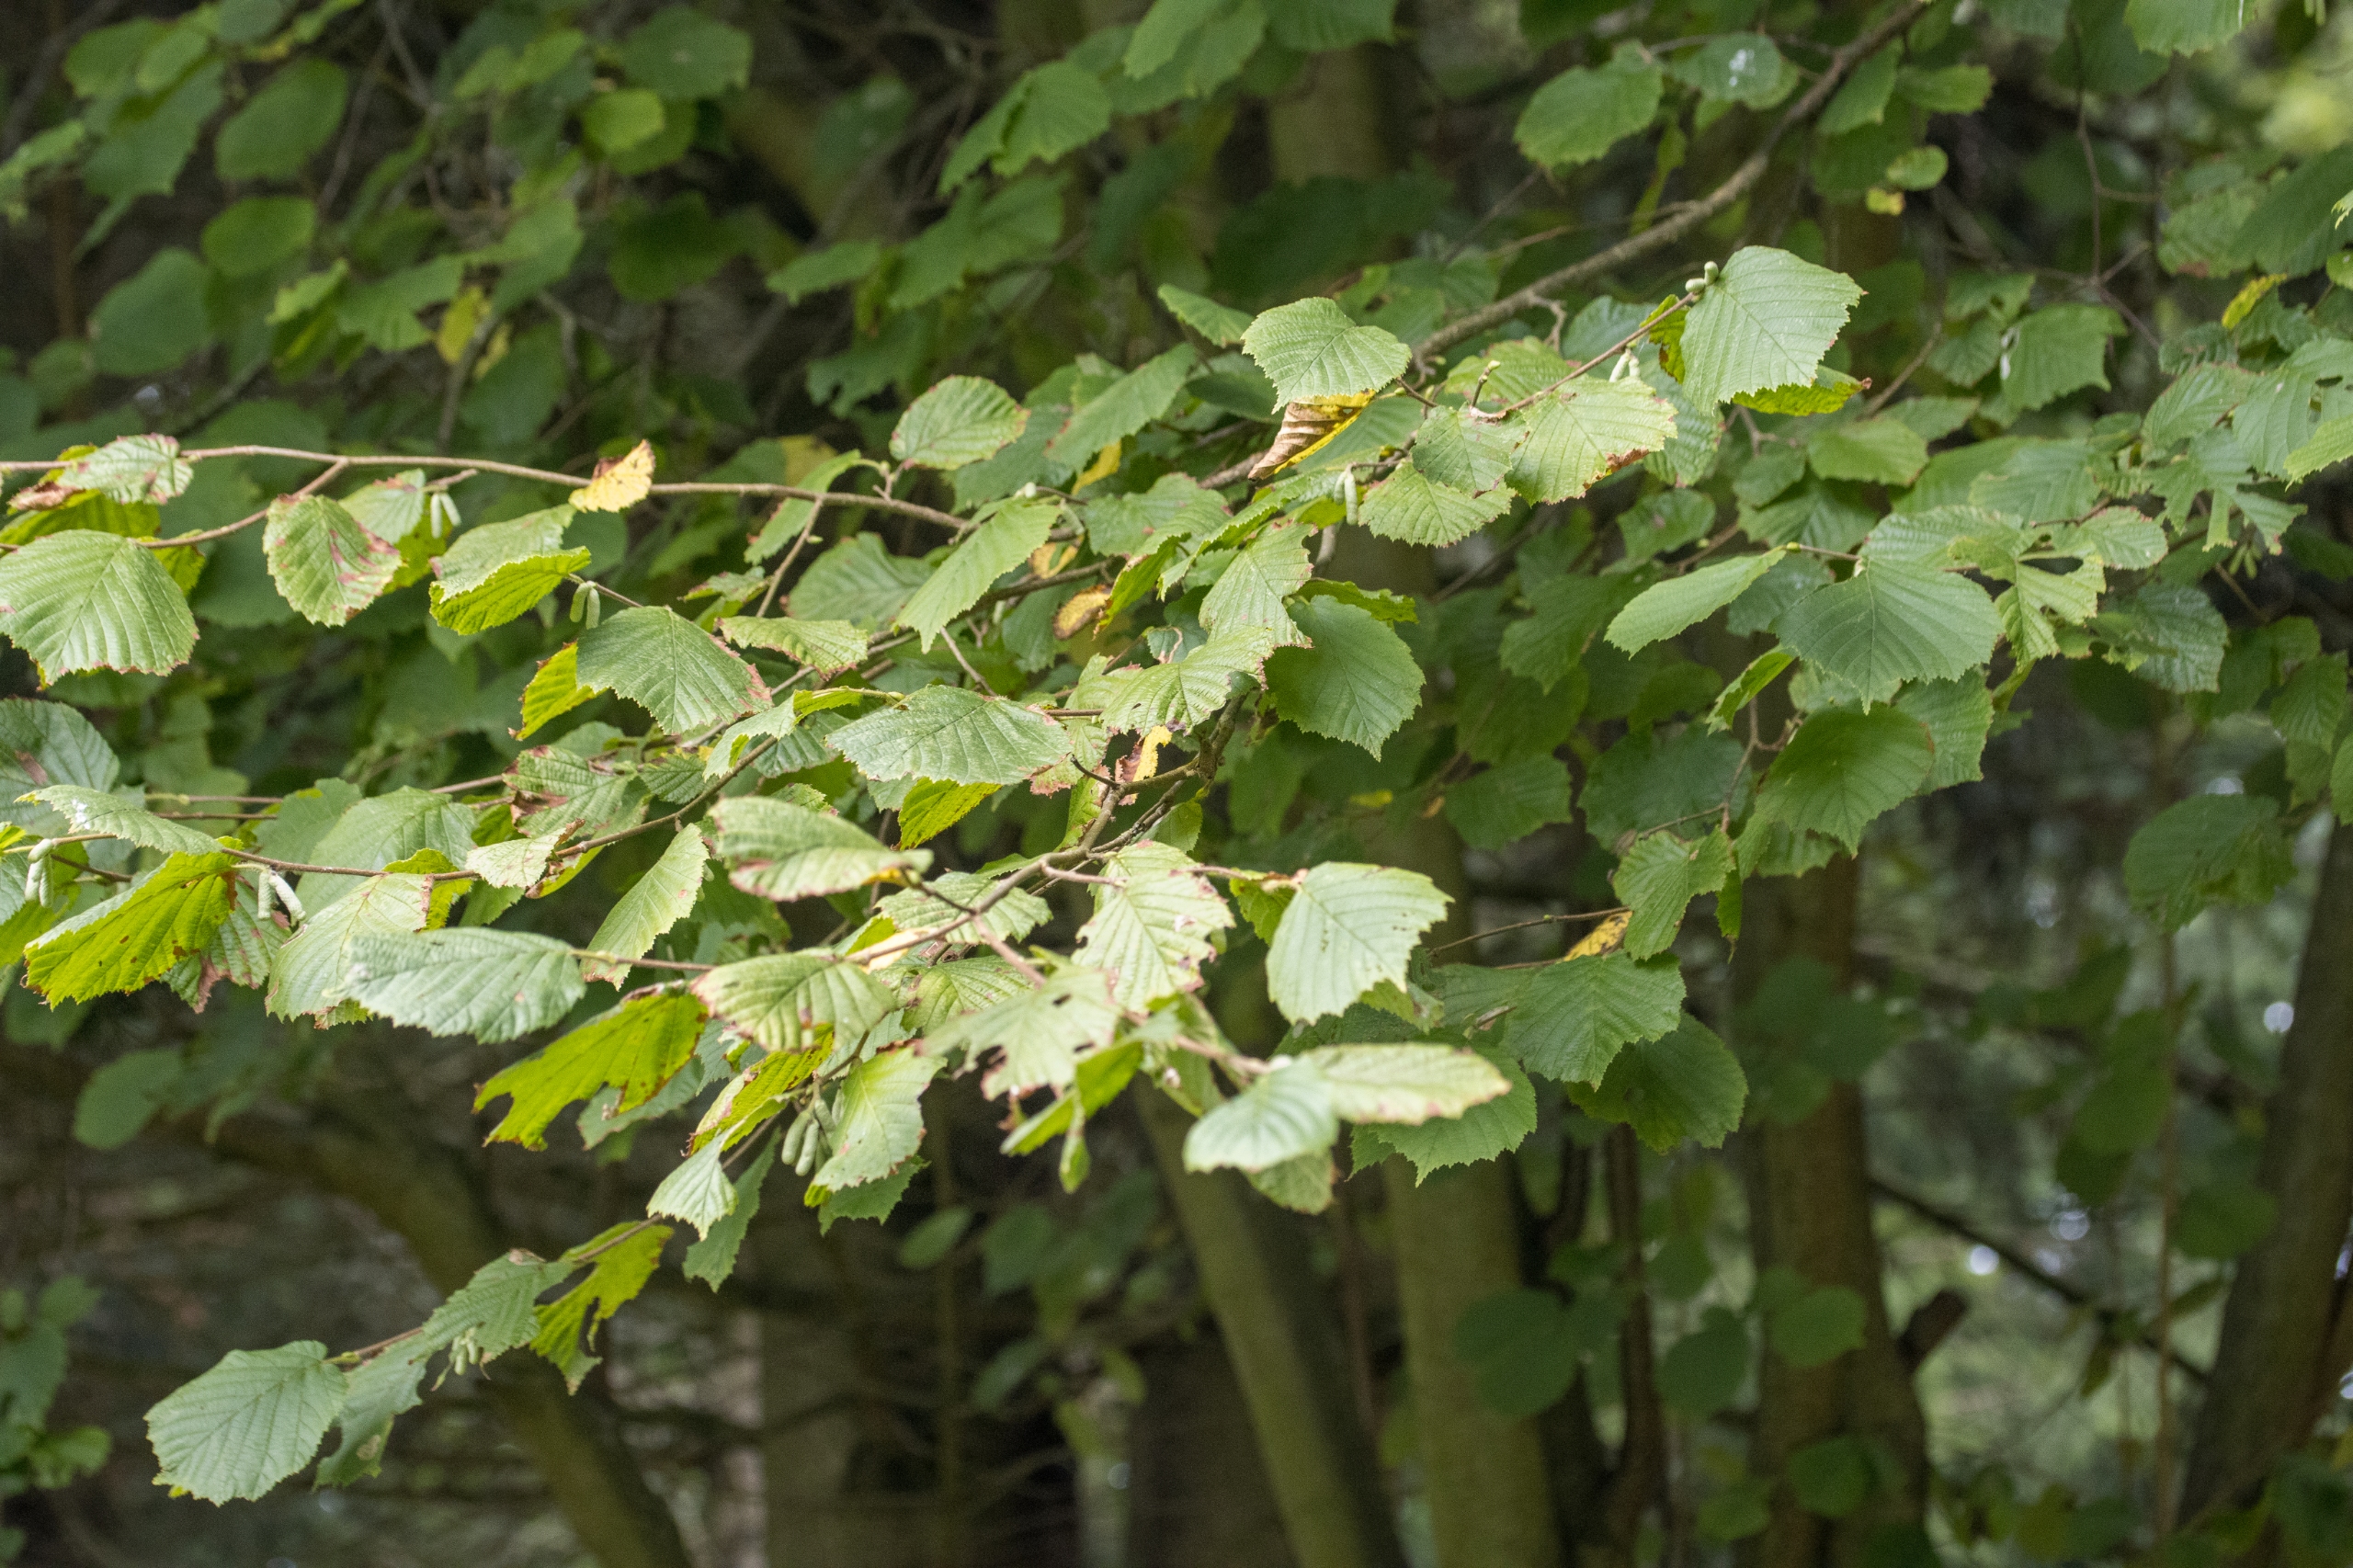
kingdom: Plantae
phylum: Tracheophyta
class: Magnoliopsida
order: Fagales
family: Betulaceae
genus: Corylus
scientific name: Corylus avellana
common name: Hassel
